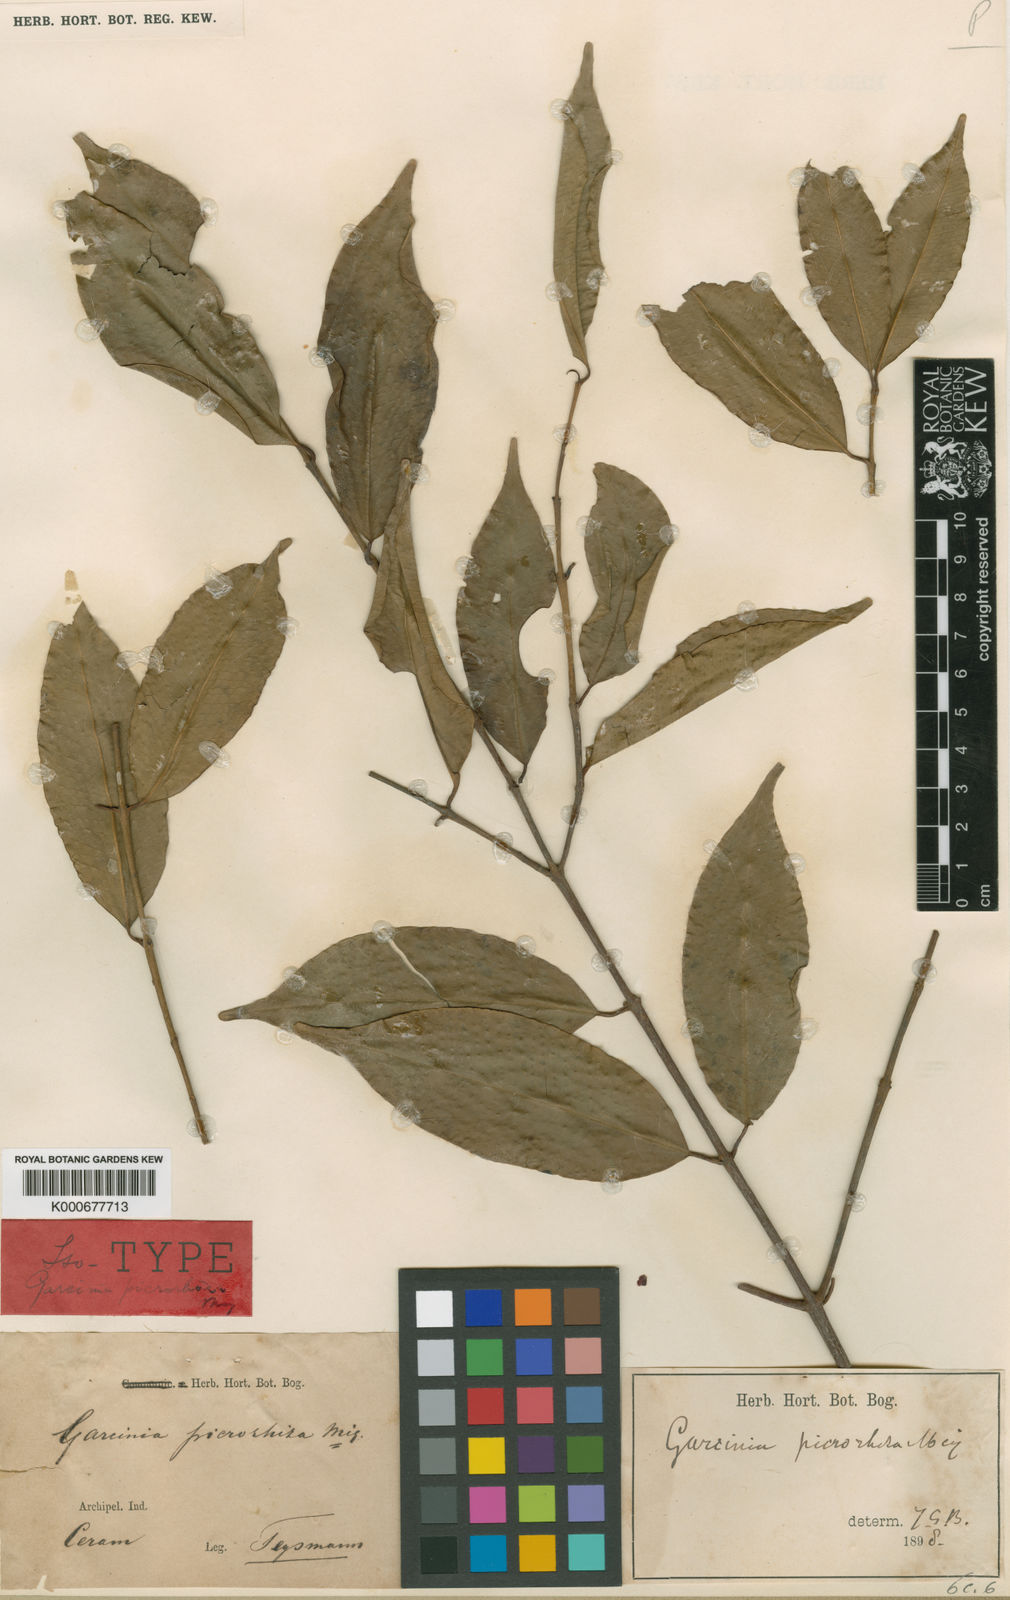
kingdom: Plantae
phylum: Tracheophyta
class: Magnoliopsida
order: Malpighiales
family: Clusiaceae
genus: Garcinia
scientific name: Garcinia picrorhiza
